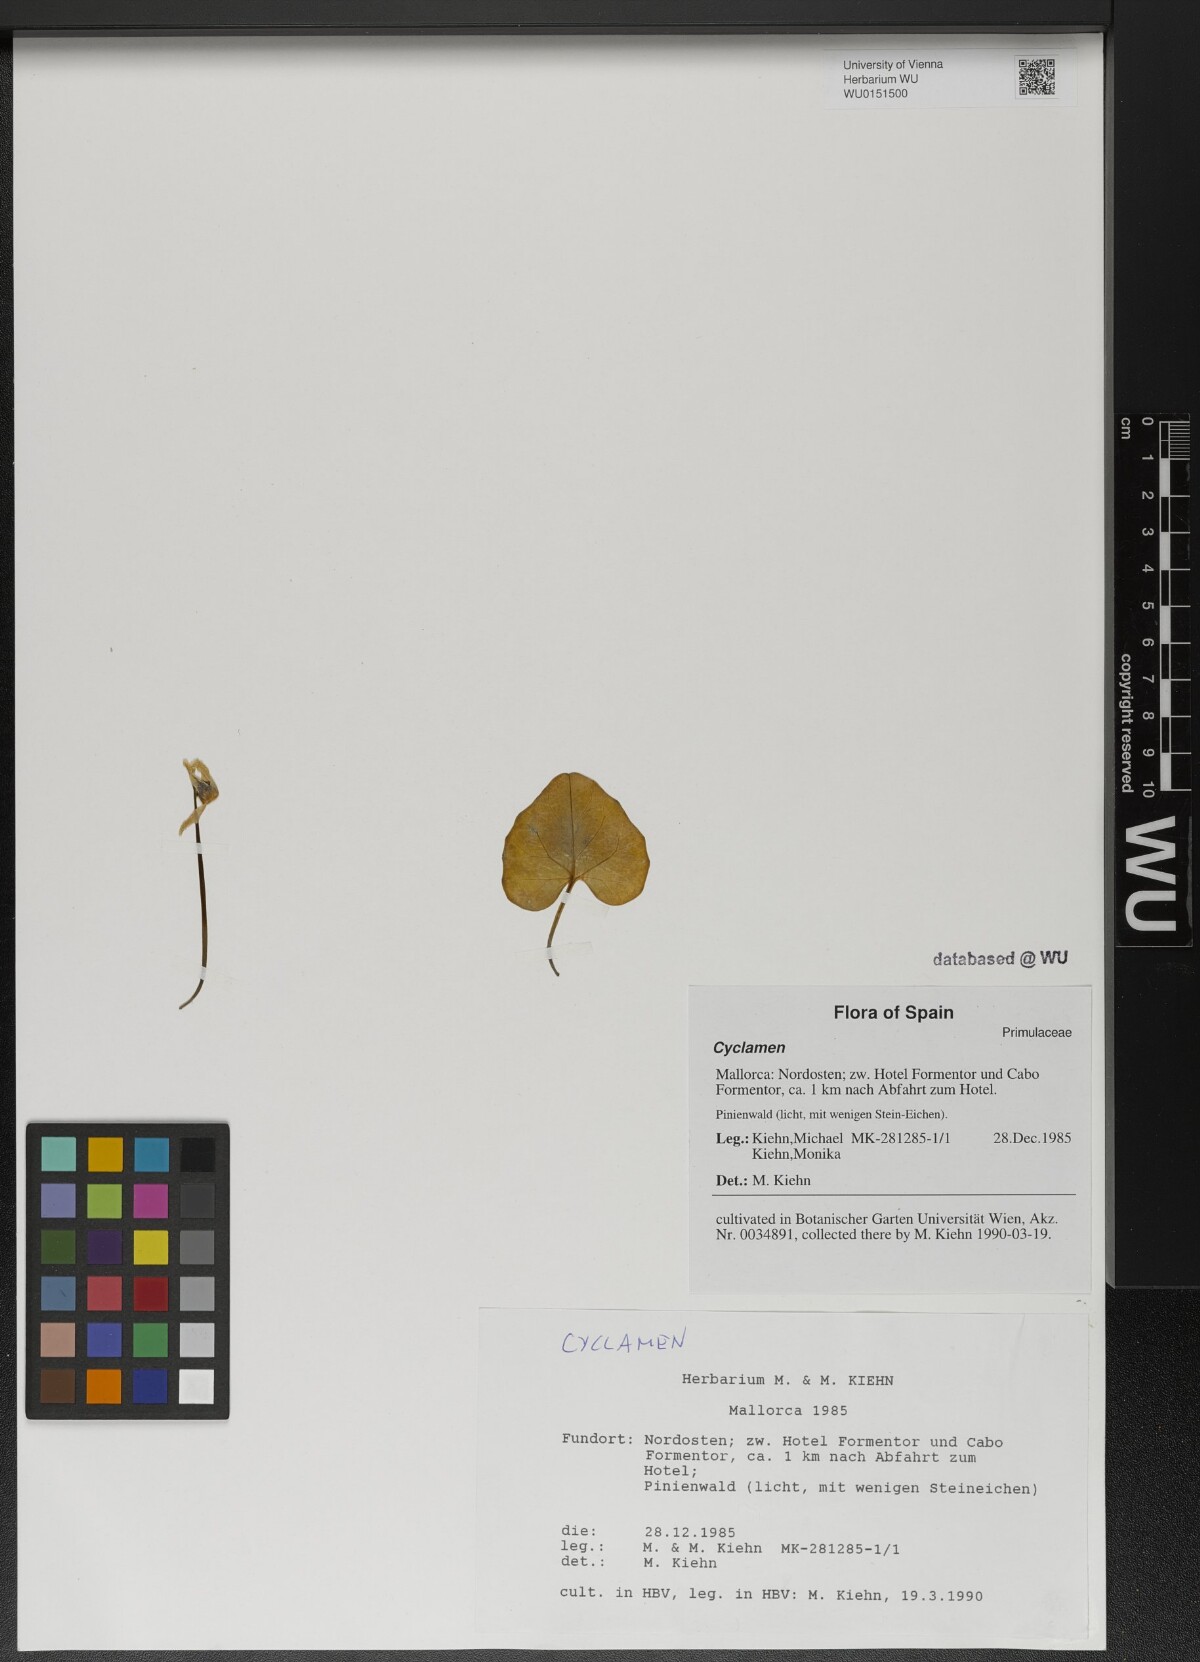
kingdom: Plantae
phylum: Tracheophyta
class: Magnoliopsida
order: Ericales
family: Primulaceae
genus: Cyclamen
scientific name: Cyclamen
